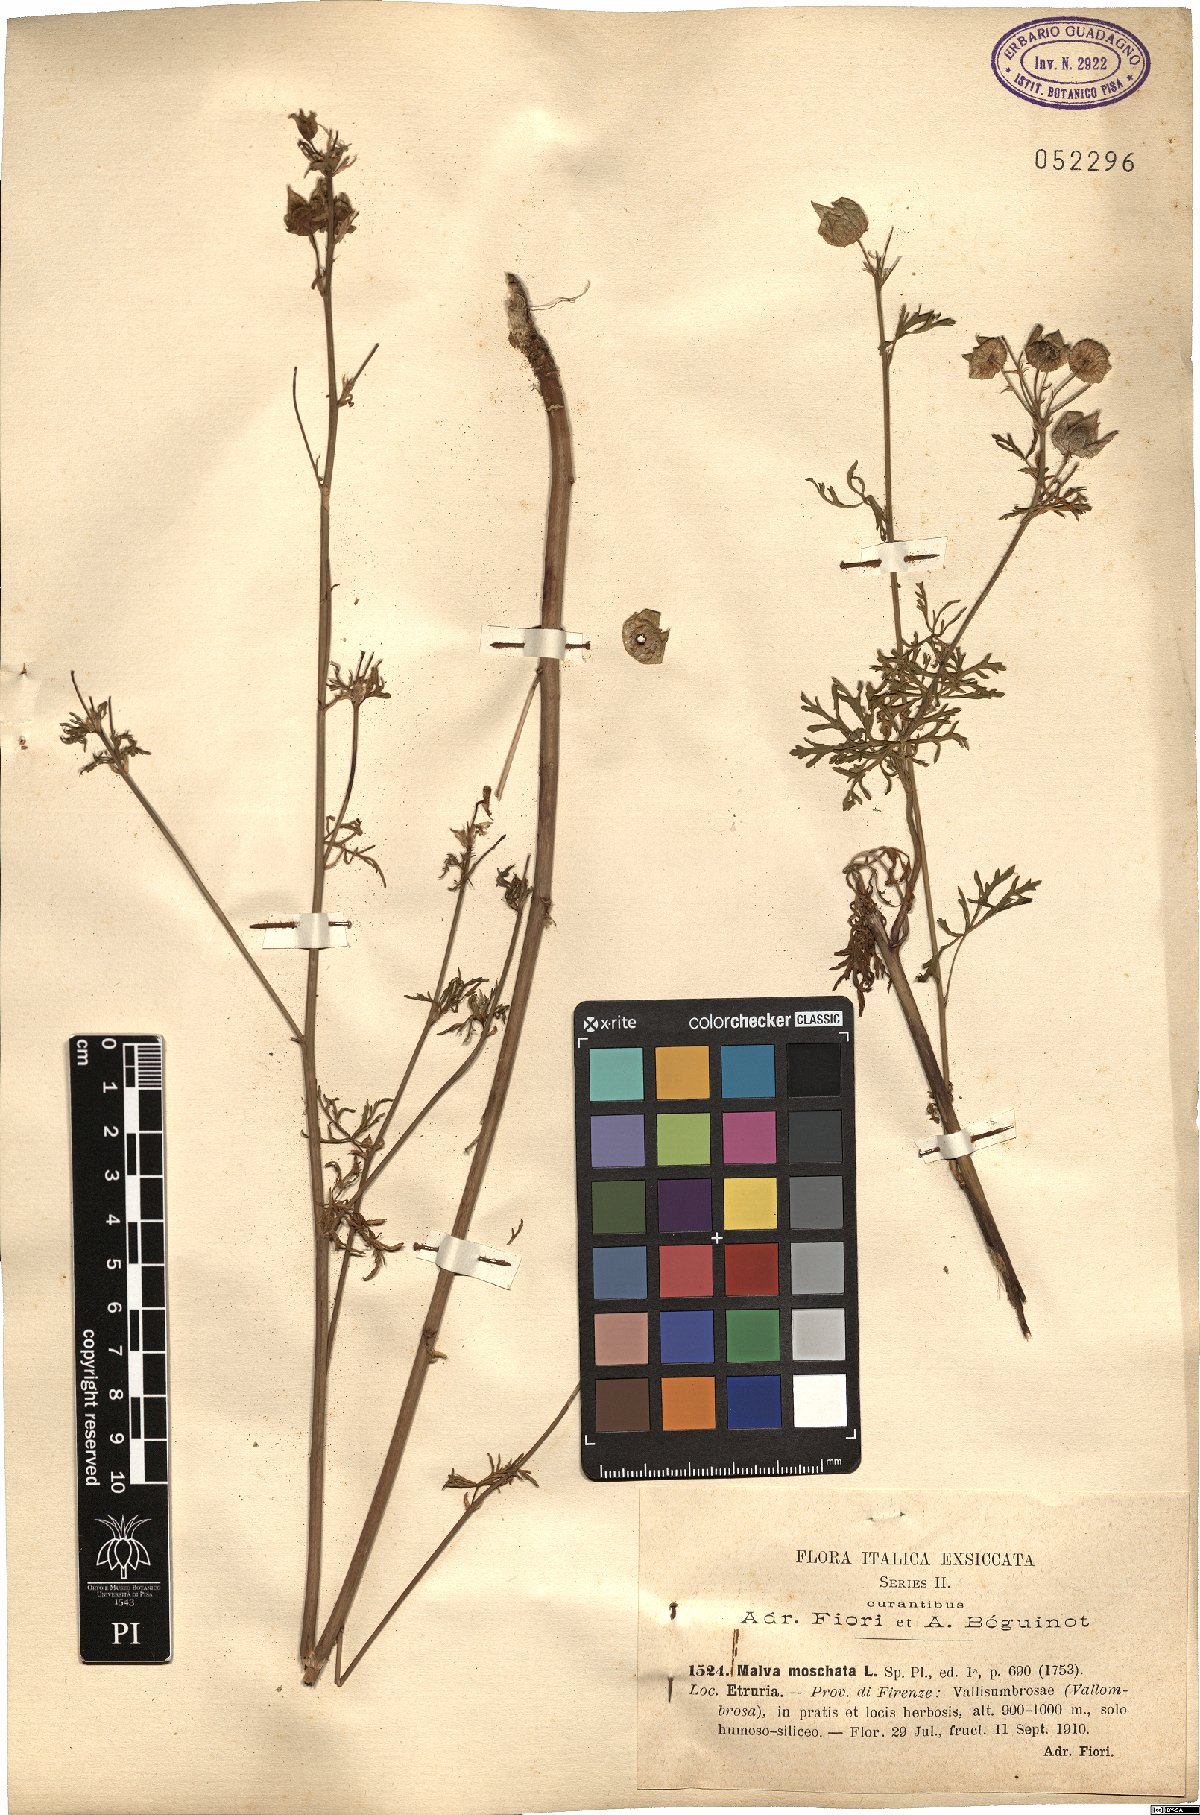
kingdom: Plantae
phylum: Tracheophyta
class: Magnoliopsida
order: Malvales
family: Malvaceae
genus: Malva
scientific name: Malva moschata
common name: Musk mallow
